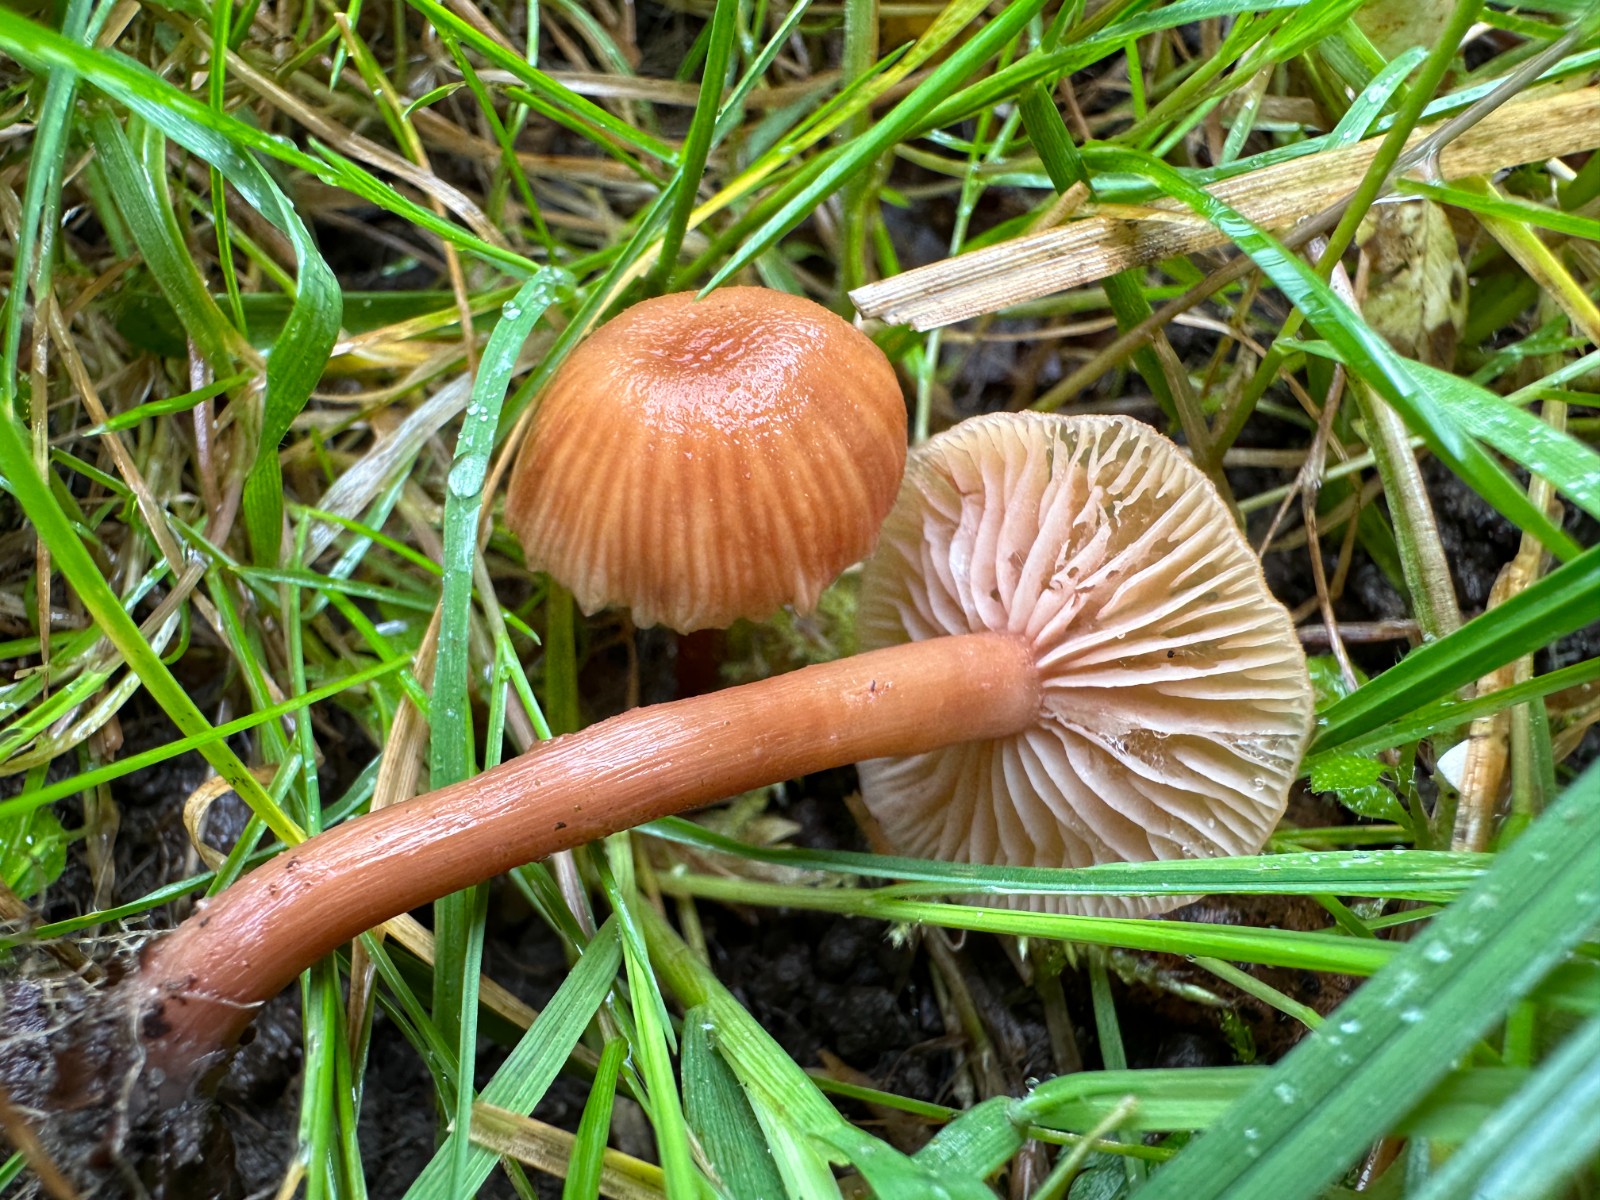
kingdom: Fungi
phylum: Basidiomycota
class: Agaricomycetes
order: Agaricales
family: Hydnangiaceae
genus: Laccaria
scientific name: Laccaria laccata
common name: rød ametysthat
